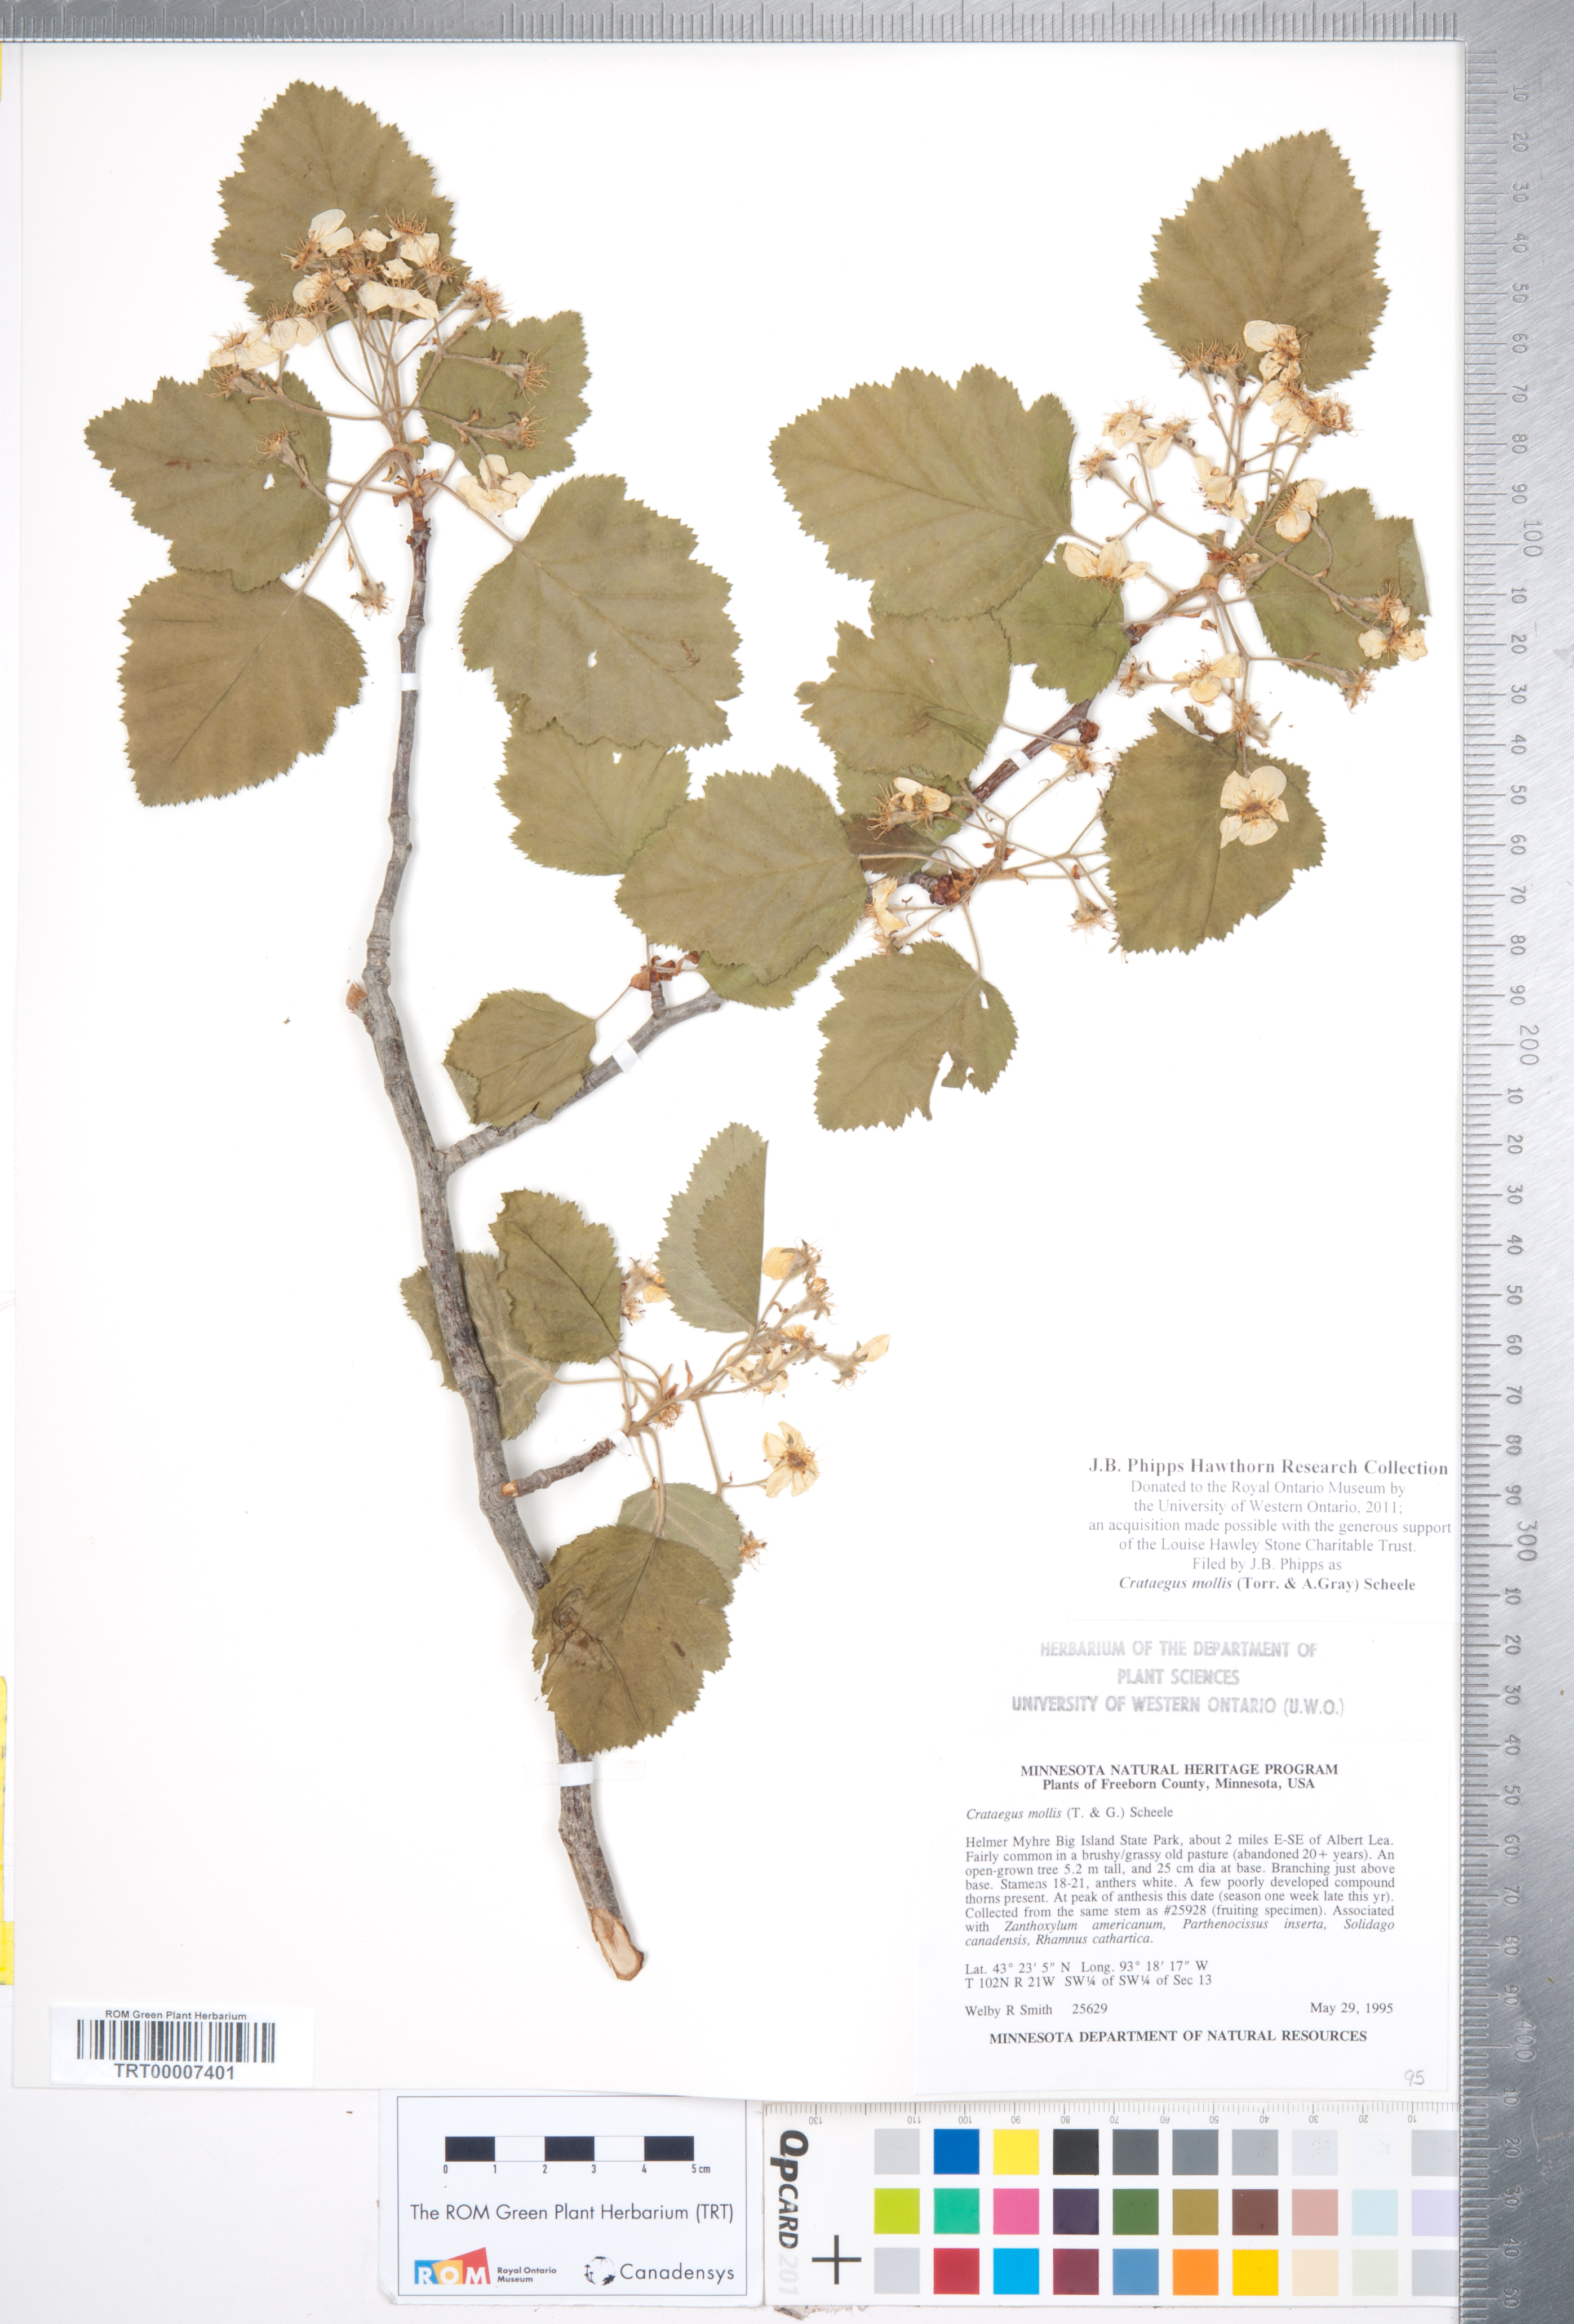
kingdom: Plantae
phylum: Tracheophyta
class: Magnoliopsida
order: Rosales
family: Rosaceae
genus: Crataegus
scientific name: Crataegus mollis
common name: Downy hawthorn
